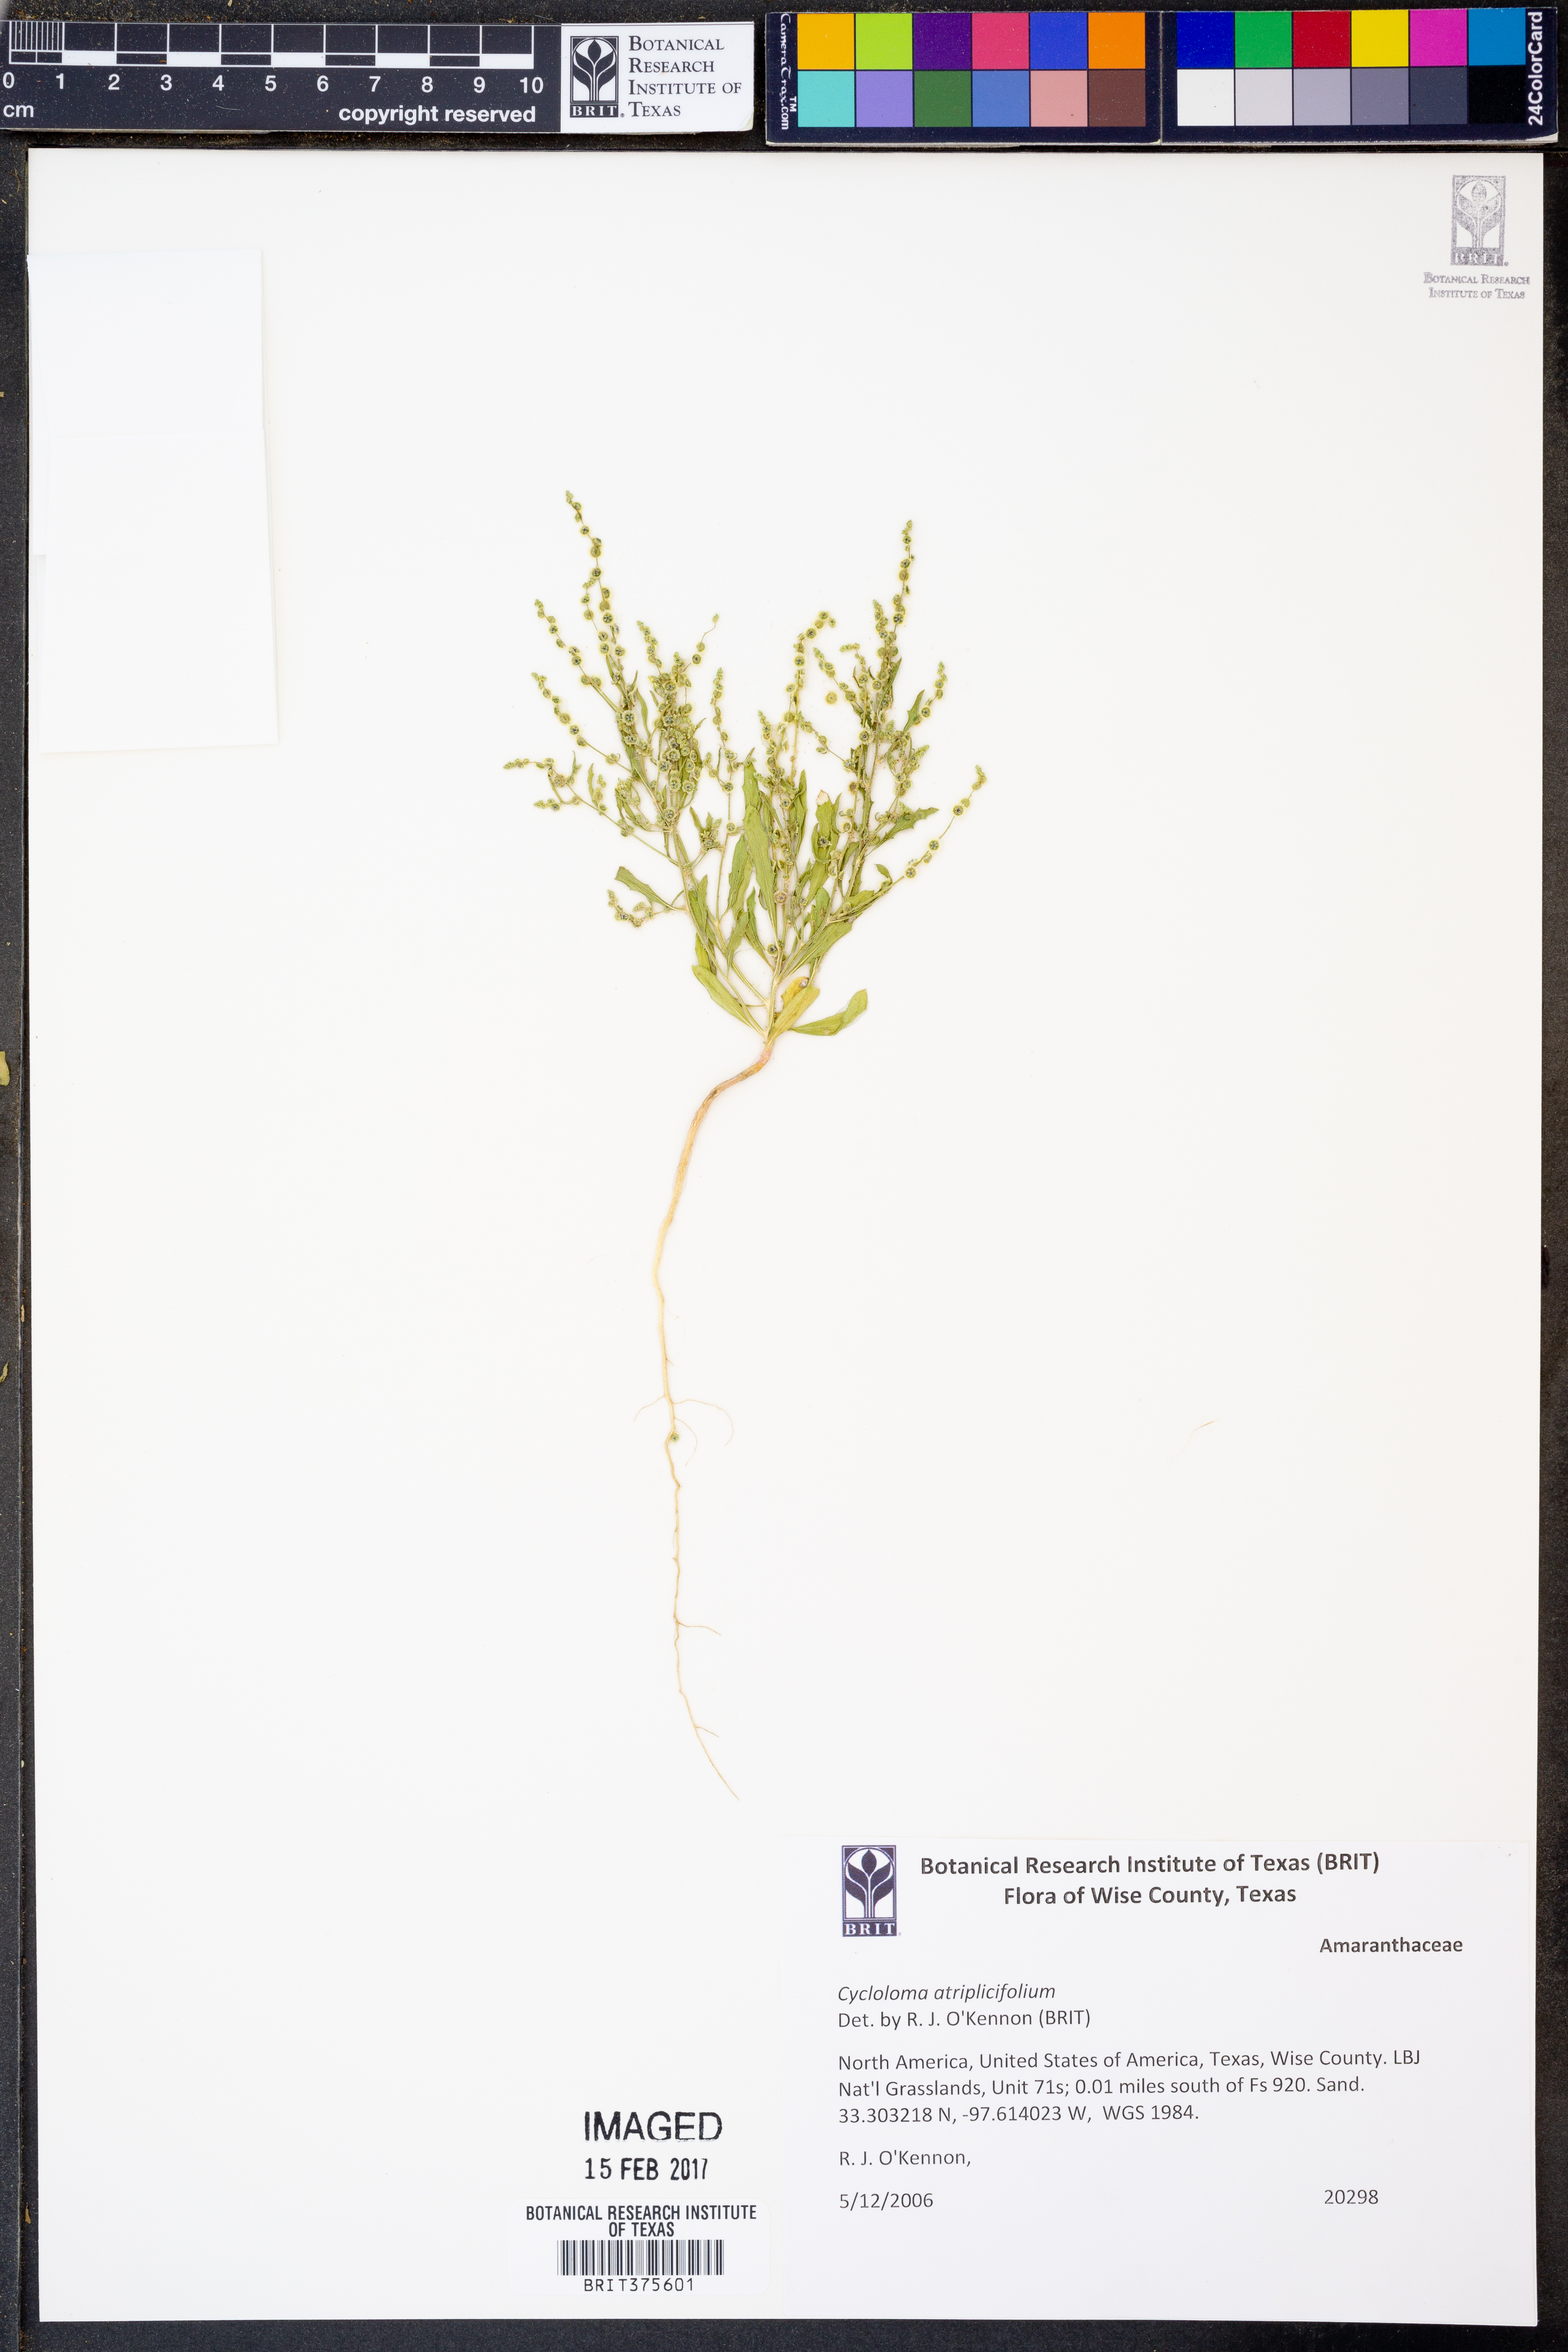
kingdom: Plantae
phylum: Tracheophyta
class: Magnoliopsida
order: Caryophyllales
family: Amaranthaceae
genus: Dysphania
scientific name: Dysphania atriplicifolia
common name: Plains tumbleweed
